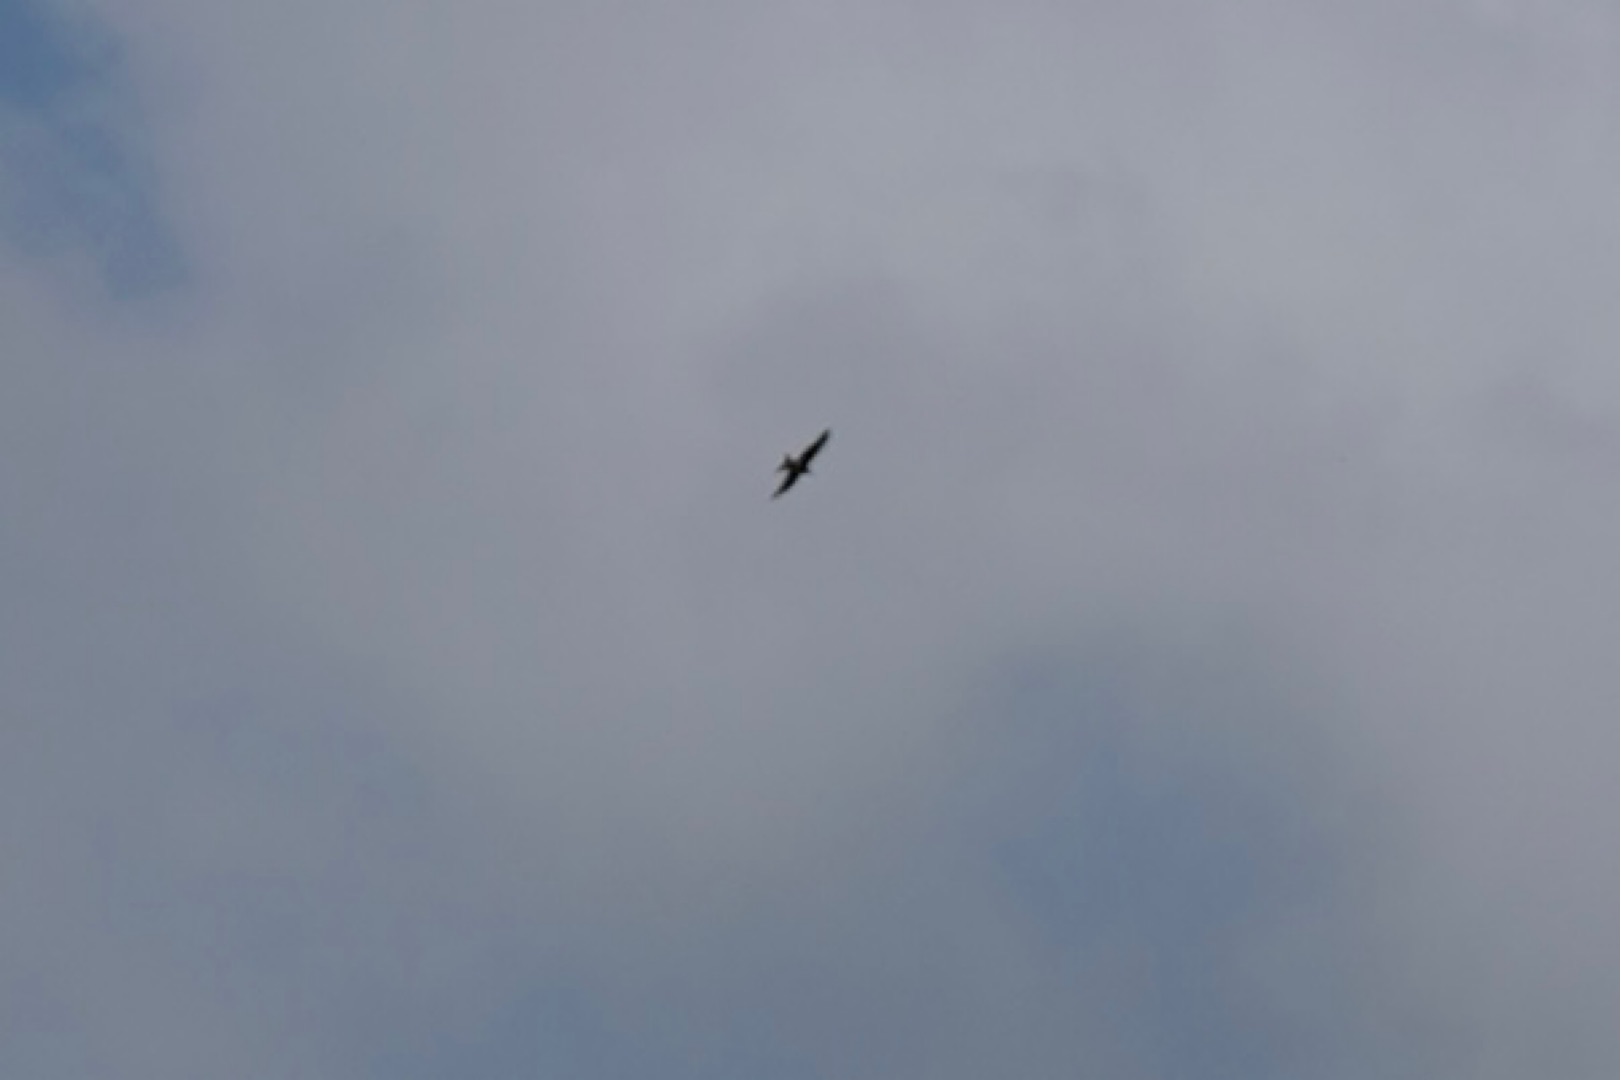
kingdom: Animalia
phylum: Chordata
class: Aves
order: Accipitriformes
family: Accipitridae
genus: Milvus
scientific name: Milvus milvus
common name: Rød glente
